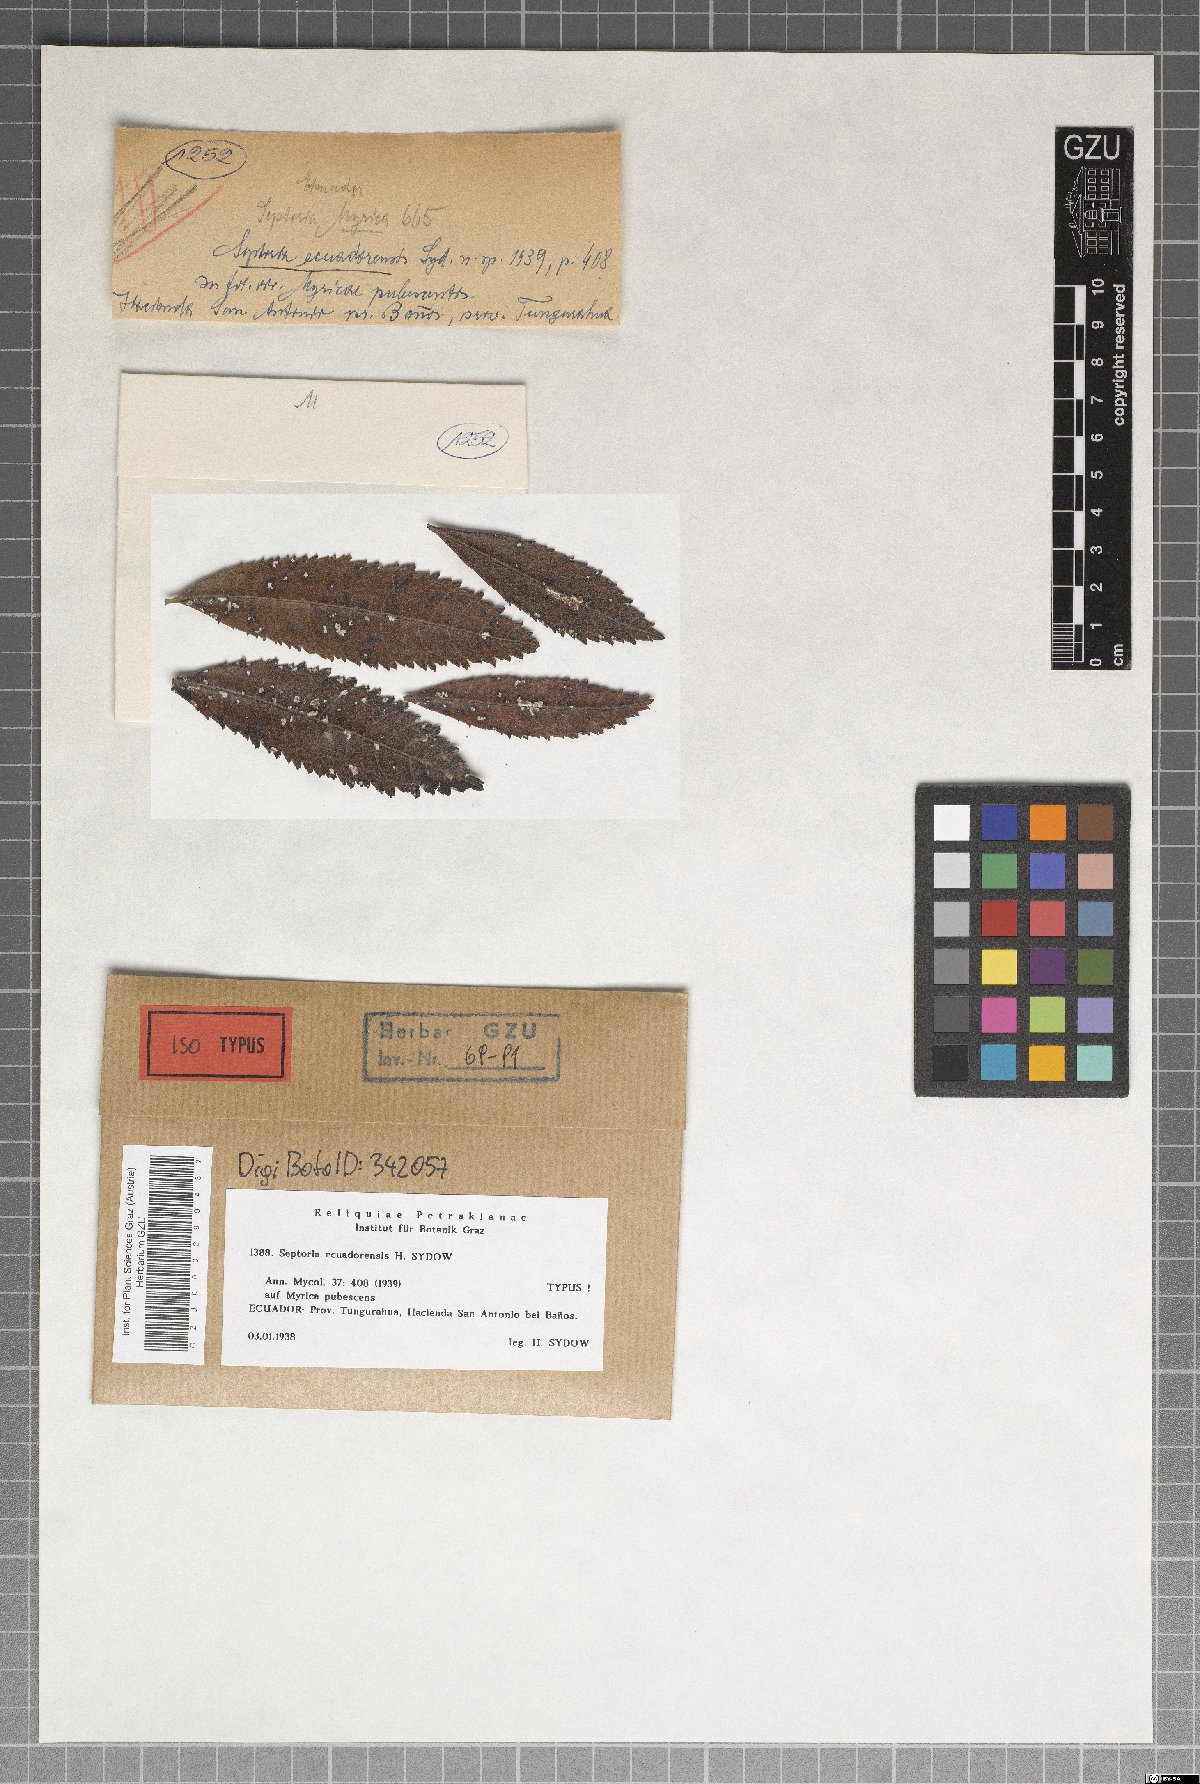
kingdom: Fungi
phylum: Ascomycota
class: Dothideomycetes
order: Mycosphaerellales
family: Mycosphaerellaceae
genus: Septoria
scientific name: Septoria
